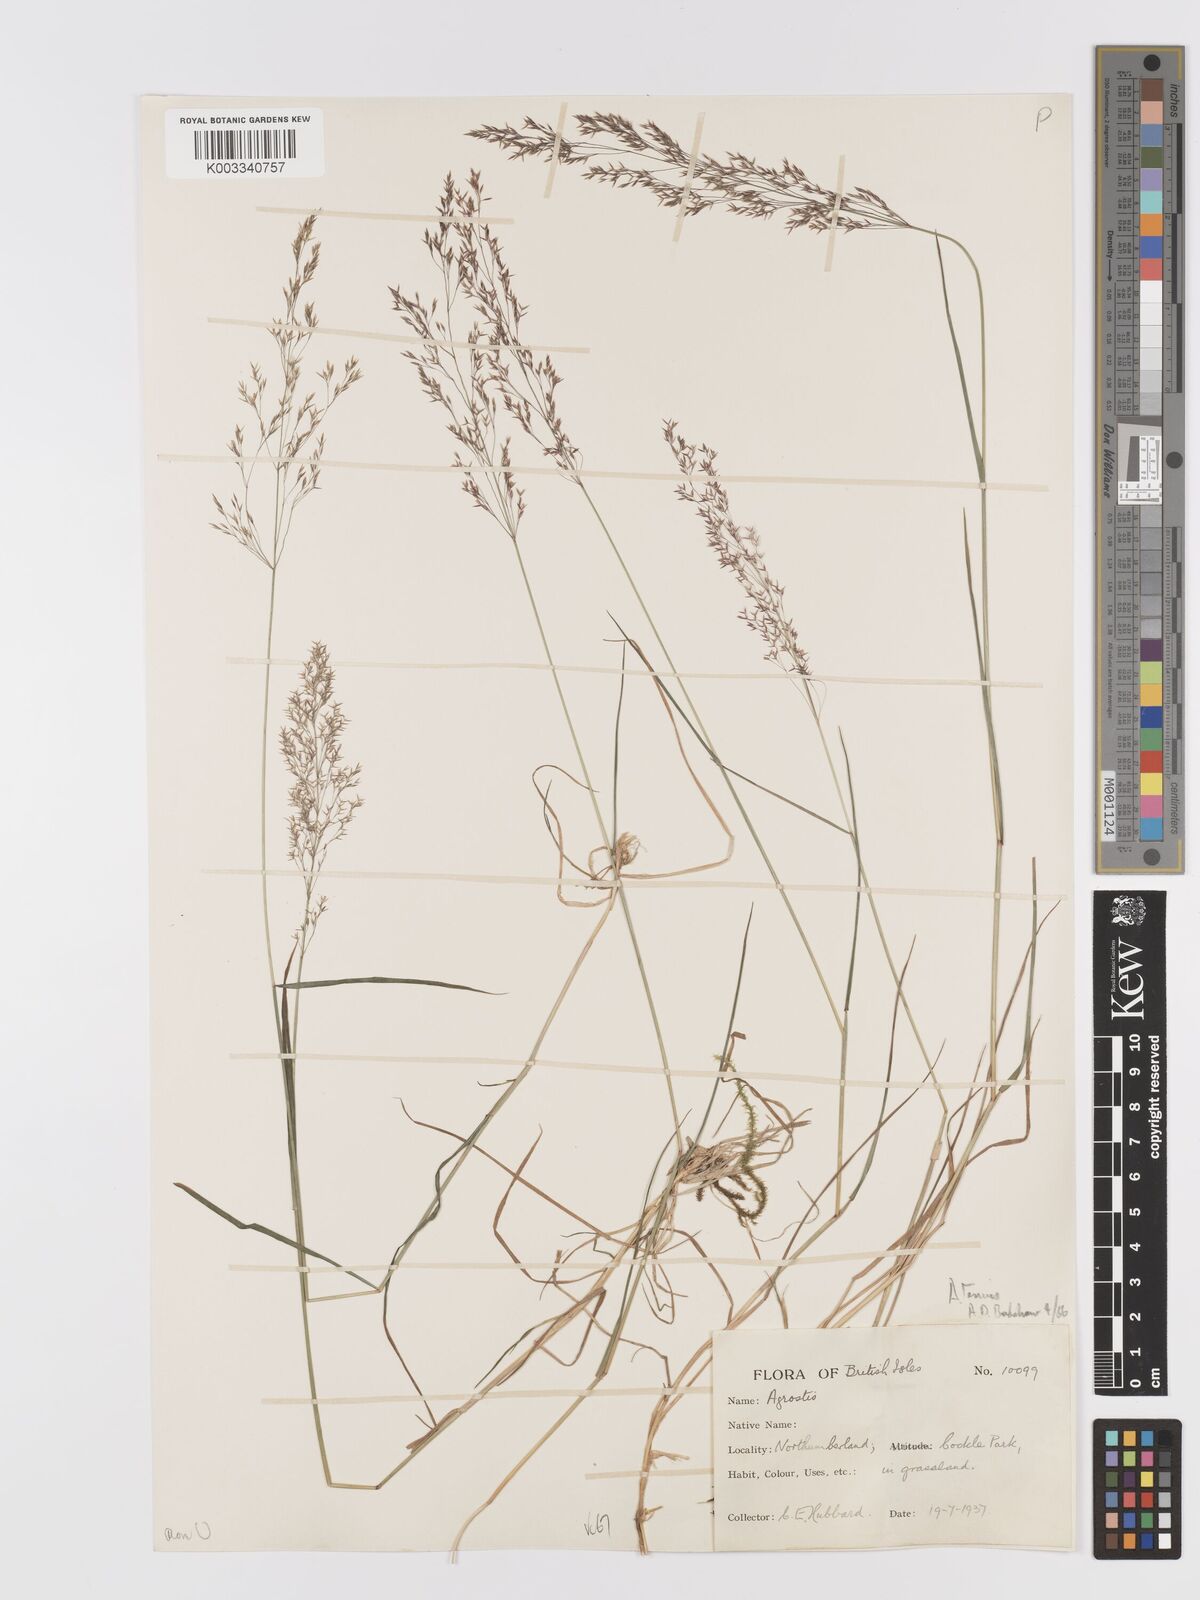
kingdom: Plantae
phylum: Tracheophyta
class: Liliopsida
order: Poales
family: Poaceae
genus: Agrostis
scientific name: Agrostis capillaris
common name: Colonial bentgrass
